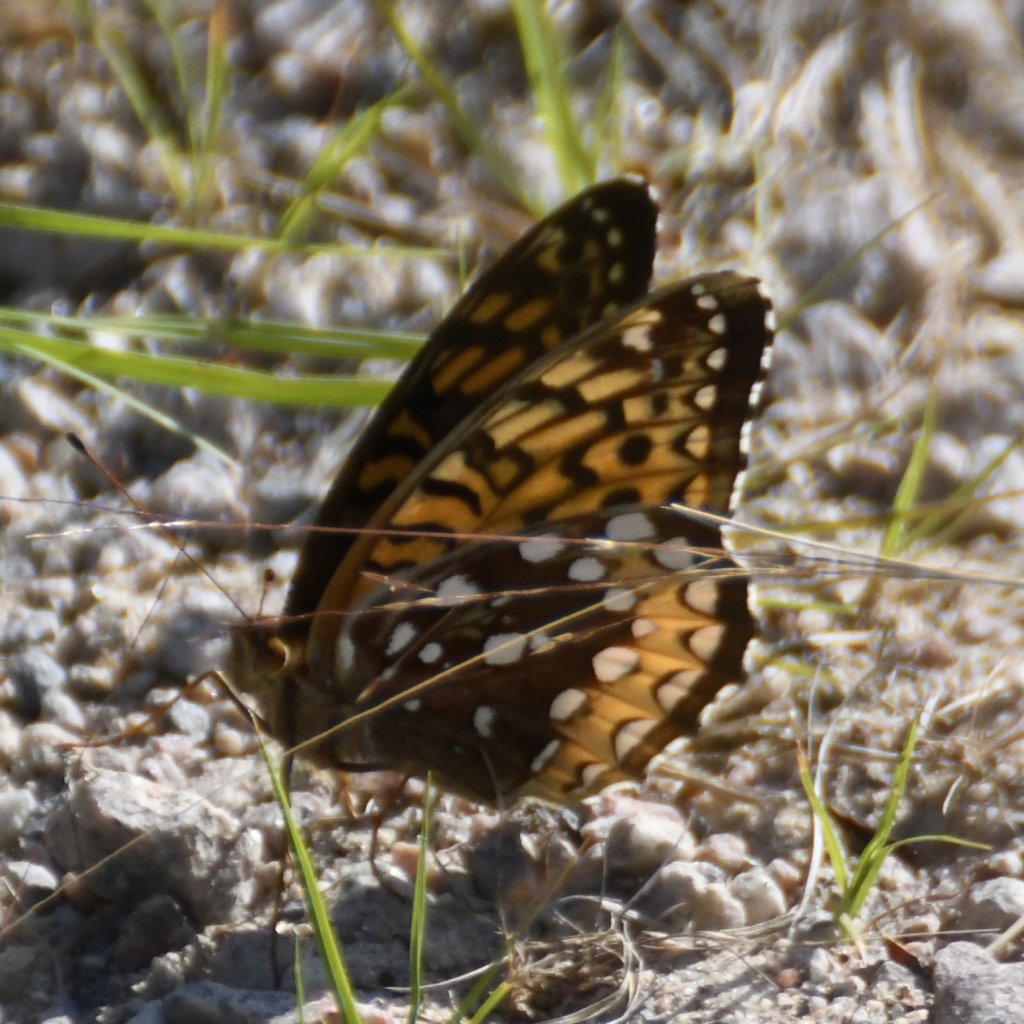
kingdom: Animalia
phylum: Arthropoda
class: Insecta
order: Lepidoptera
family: Nymphalidae
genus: Speyeria
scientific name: Speyeria cybele
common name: Great Spangled Fritillary
